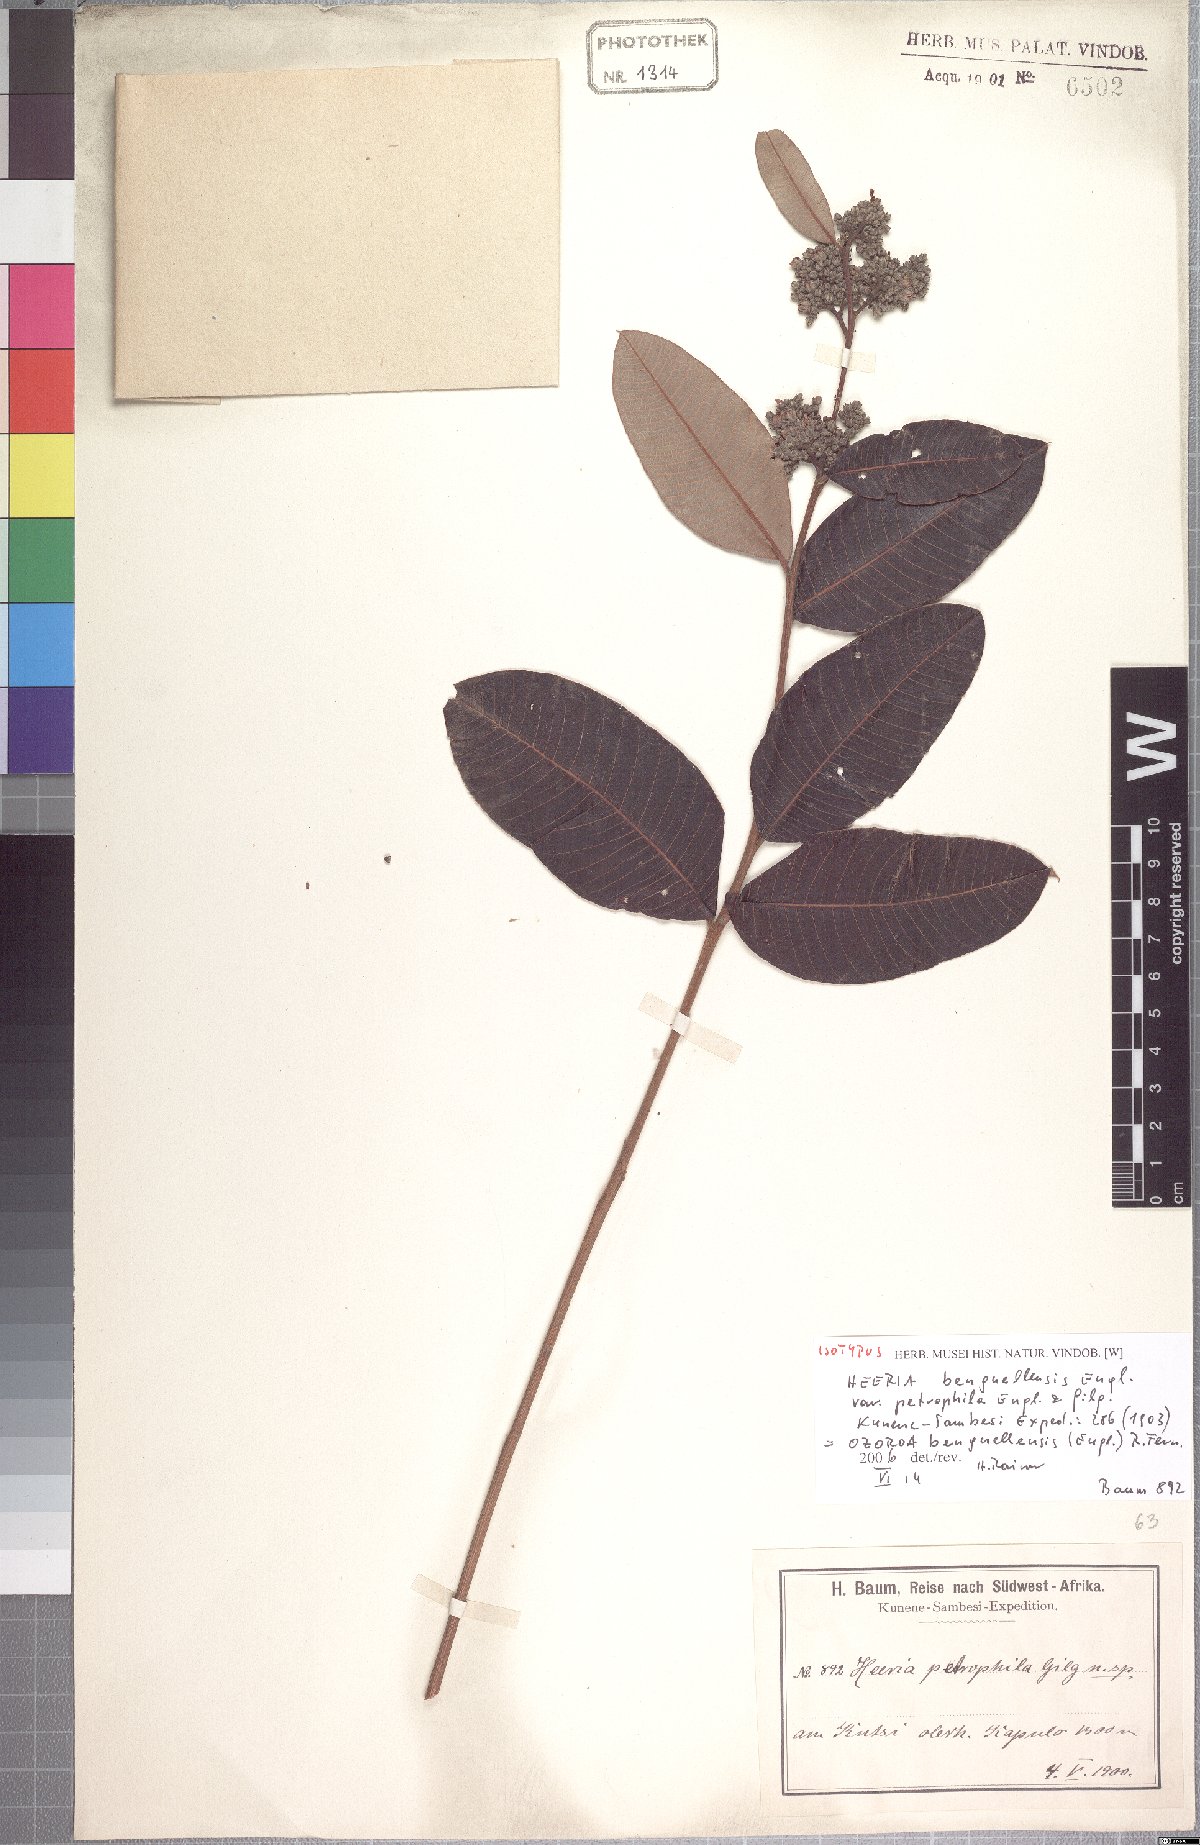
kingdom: Plantae
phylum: Tracheophyta
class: Magnoliopsida
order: Sapindales
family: Anacardiaceae
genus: Ozoroa
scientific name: Ozoroa benguellensis
